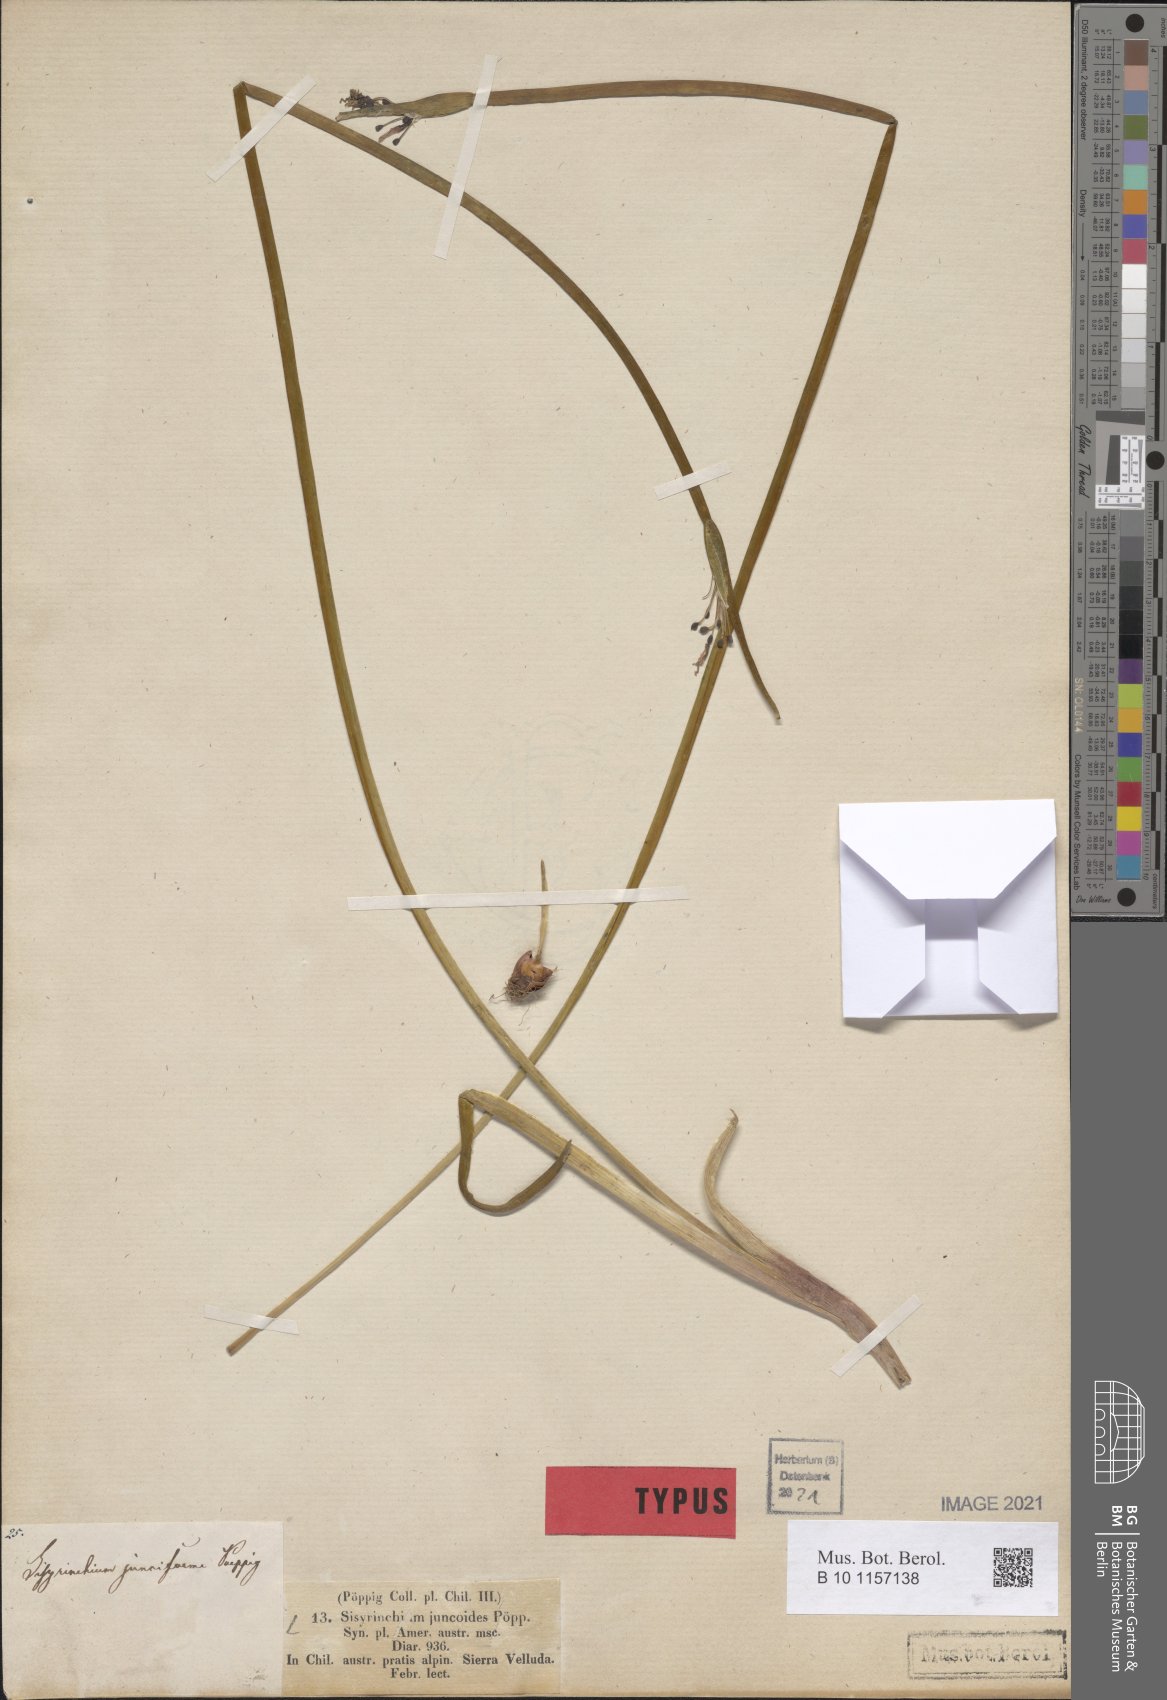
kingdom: Plantae
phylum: Tracheophyta
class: Liliopsida
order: Asparagales
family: Iridaceae
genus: Sisyrinchium
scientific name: Sisyrinchium juncoides
